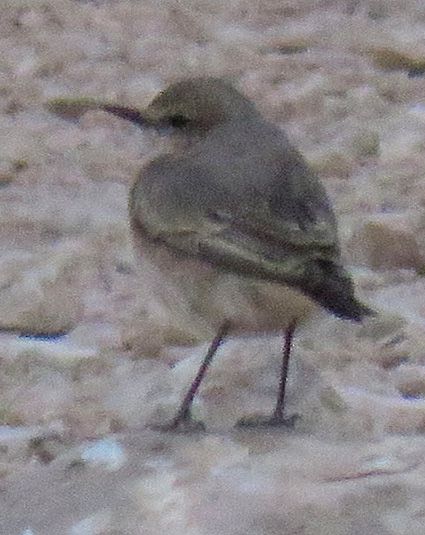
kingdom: Animalia
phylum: Chordata
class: Aves
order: Passeriformes
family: Muscicapidae
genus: Oenanthe
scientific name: Oenanthe oenanthe
